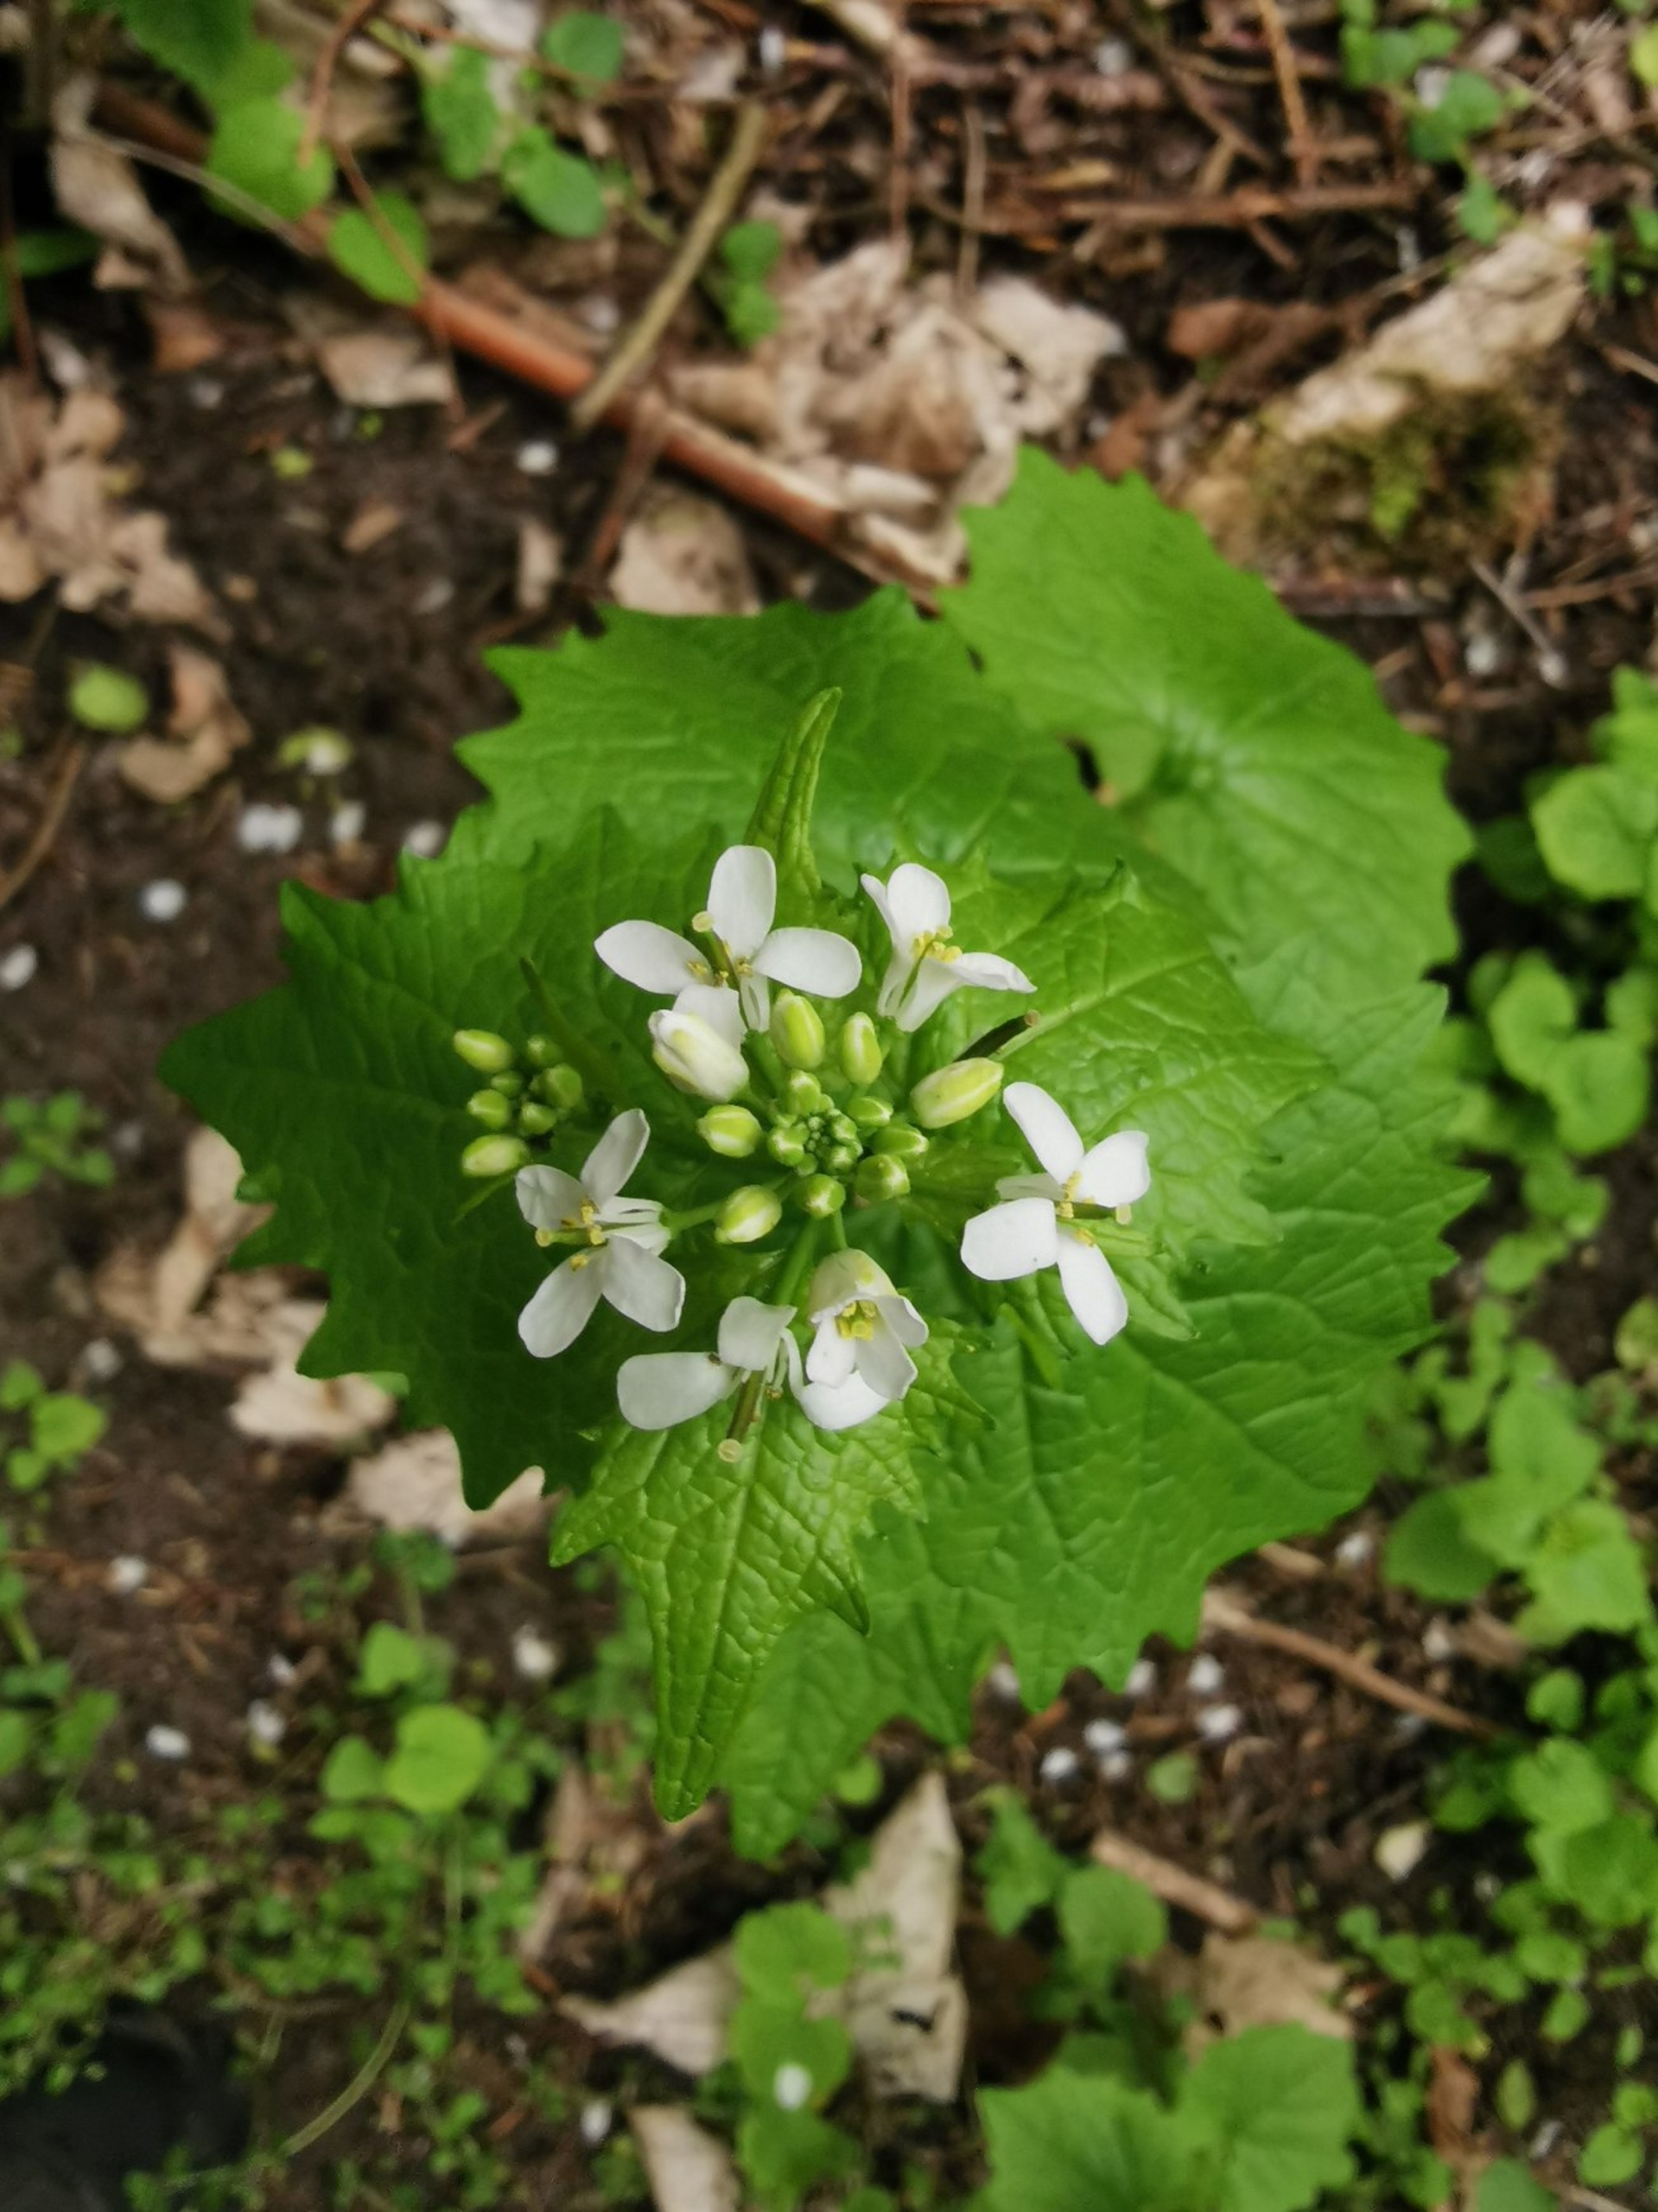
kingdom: Plantae
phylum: Tracheophyta
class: Magnoliopsida
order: Brassicales
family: Brassicaceae
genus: Alliaria
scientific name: Alliaria petiolata
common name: Løgkarse
